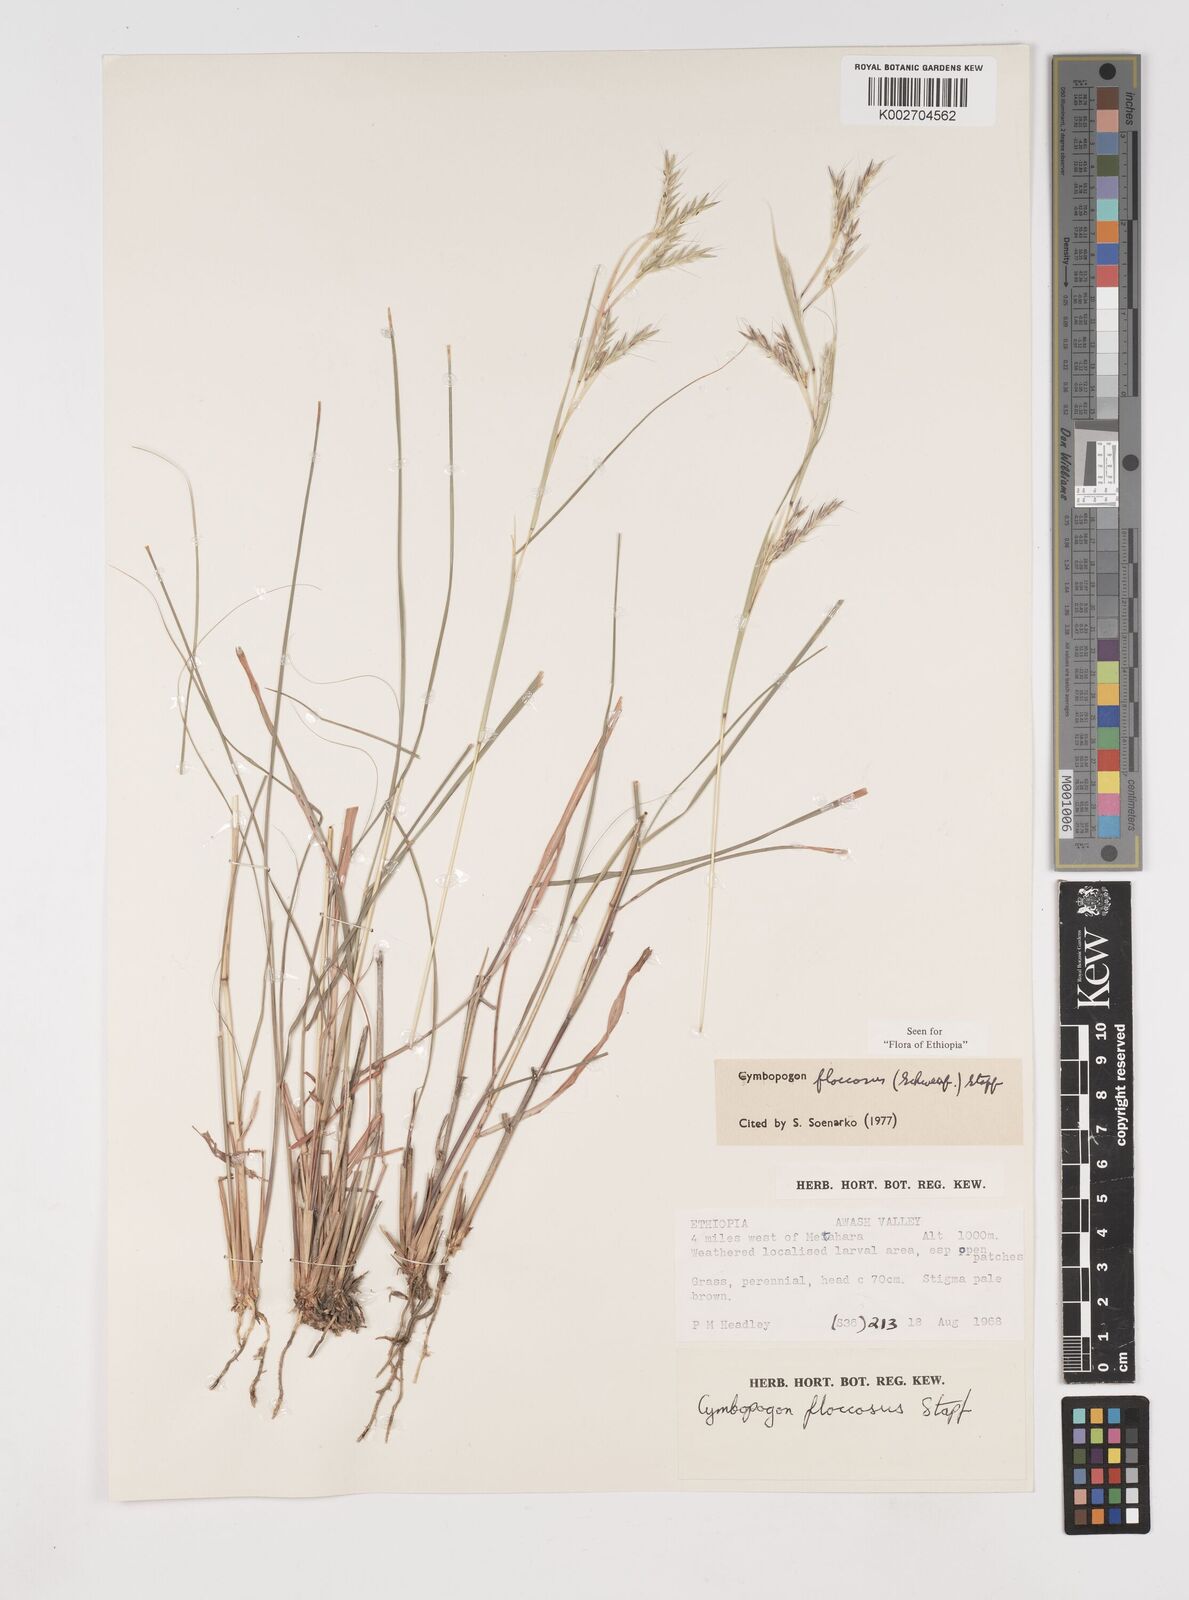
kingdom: Plantae
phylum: Tracheophyta
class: Liliopsida
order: Poales
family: Poaceae
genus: Cymbopogon
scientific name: Cymbopogon
